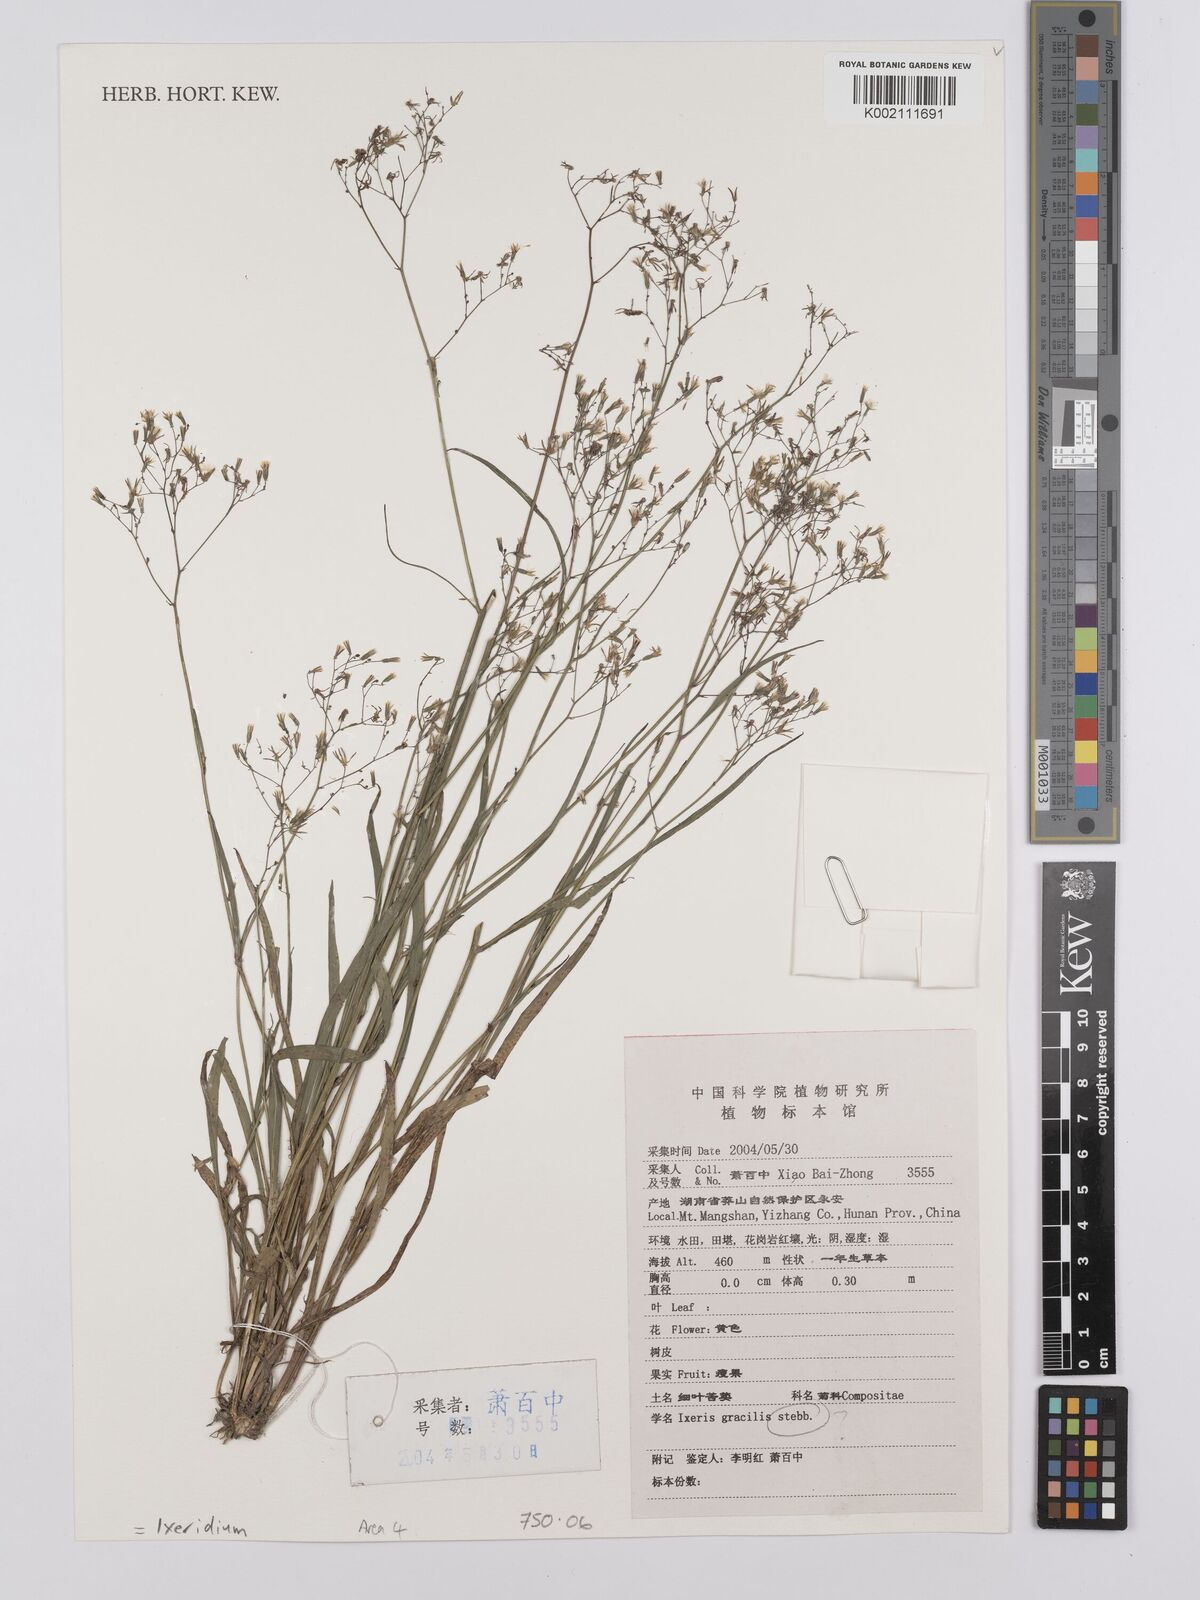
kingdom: Plantae
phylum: Tracheophyta
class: Magnoliopsida
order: Asterales
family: Asteraceae
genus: Ixeridium
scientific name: Ixeridium gracile
